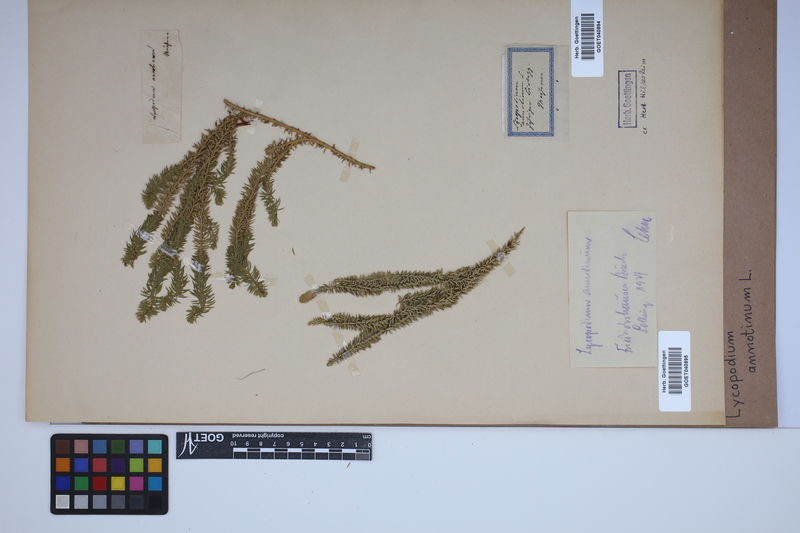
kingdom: Plantae
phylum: Tracheophyta
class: Lycopodiopsida
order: Lycopodiales
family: Lycopodiaceae
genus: Spinulum
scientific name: Spinulum annotinum
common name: Interrupted club-moss
